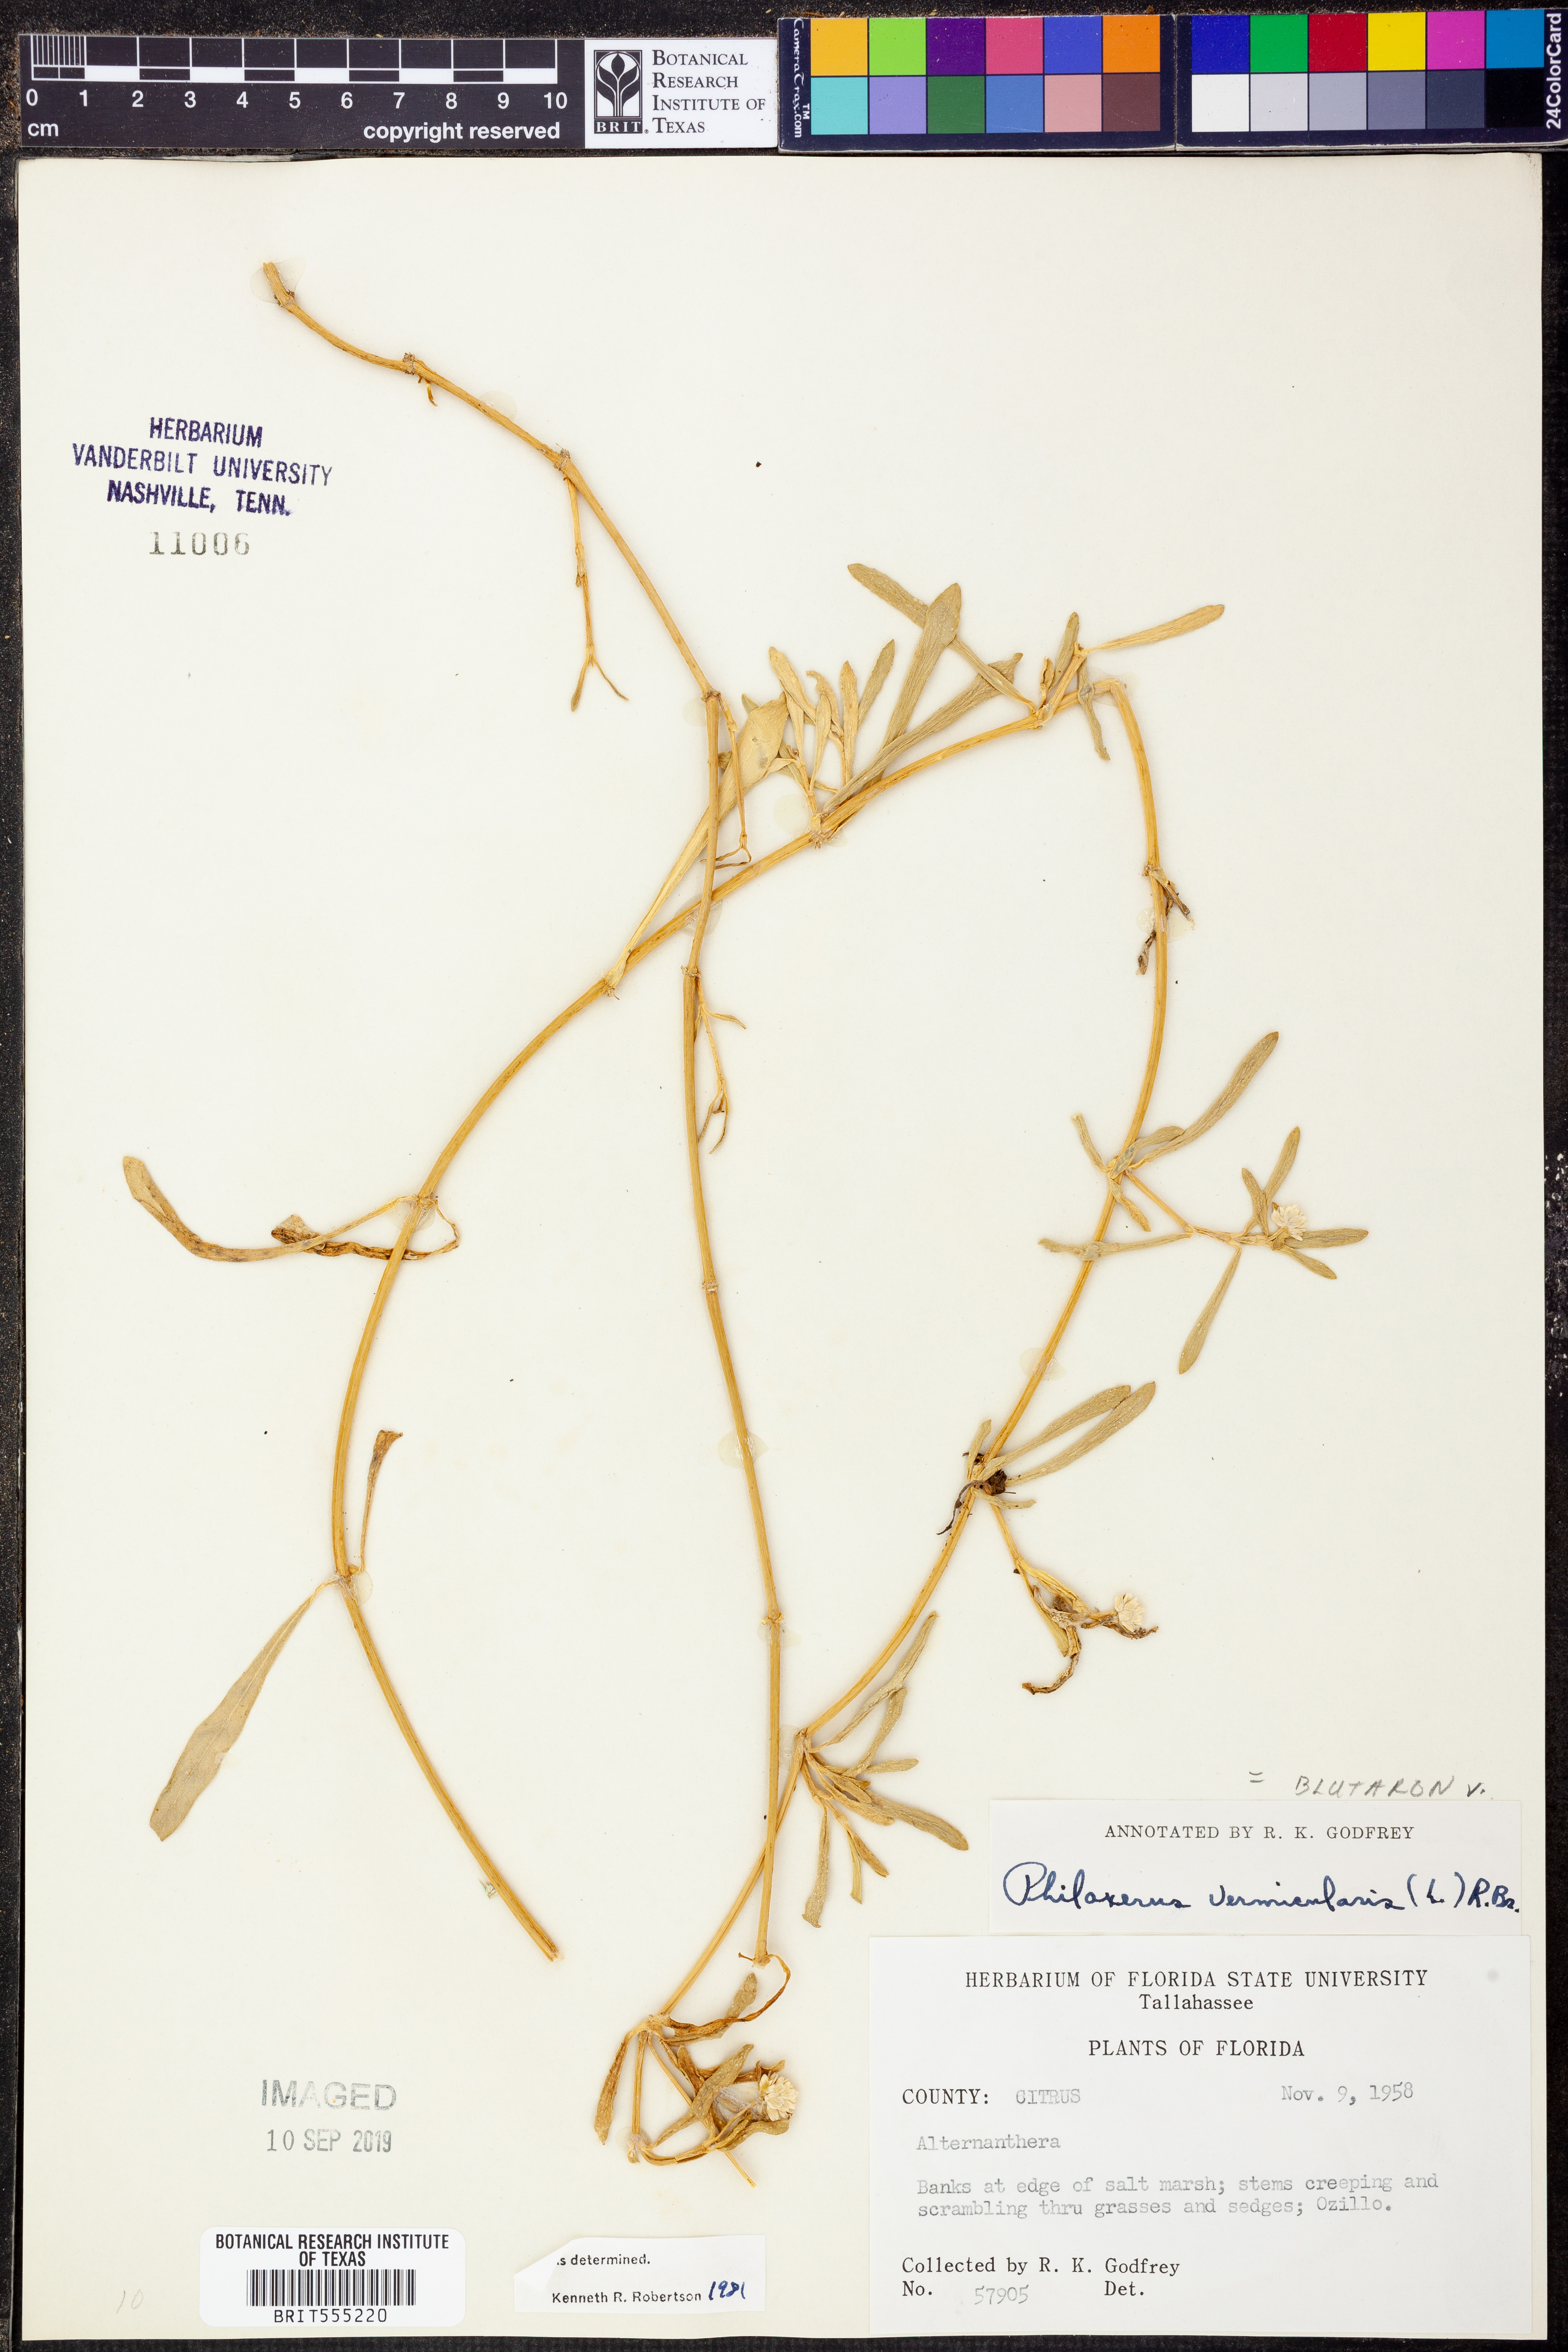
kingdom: Plantae
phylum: Tracheophyta
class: Magnoliopsida
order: Caryophyllales
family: Amaranthaceae
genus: Gomphrena
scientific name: Gomphrena
